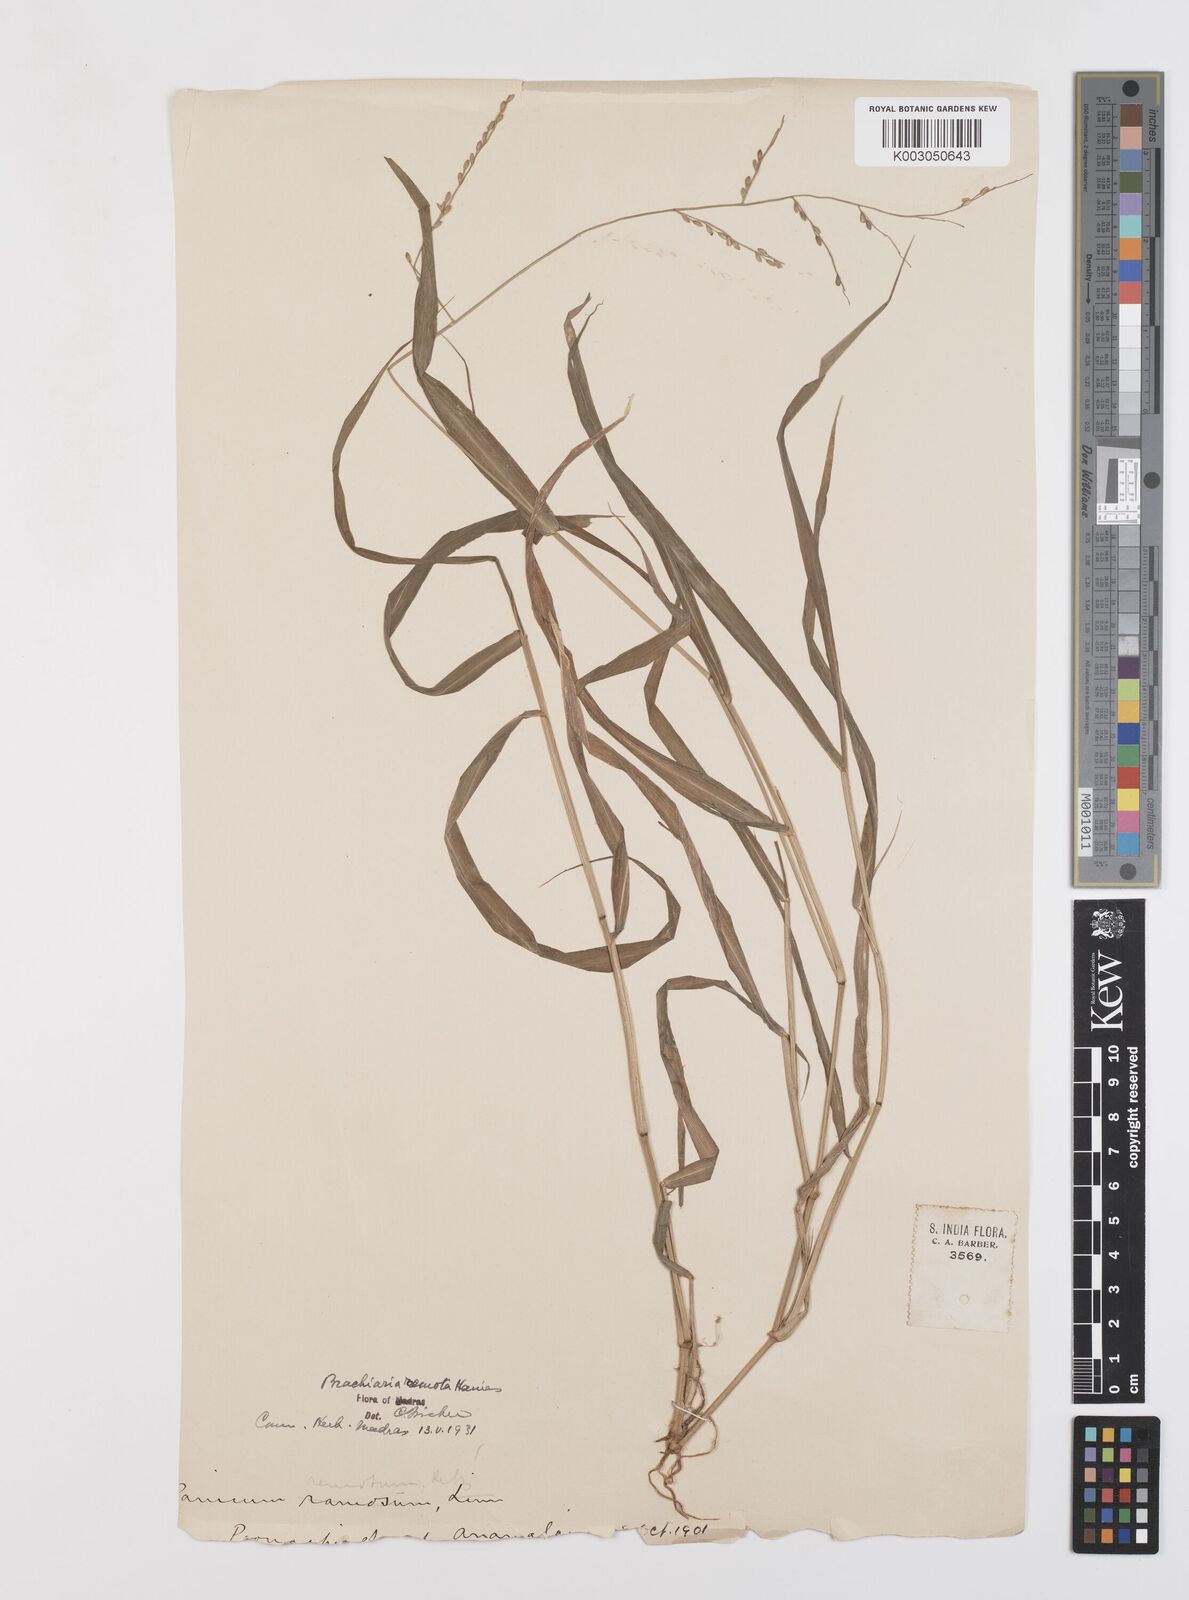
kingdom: Plantae
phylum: Tracheophyta
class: Liliopsida
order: Poales
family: Poaceae
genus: Urochloa
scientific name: Urochloa Brachiaria remota
